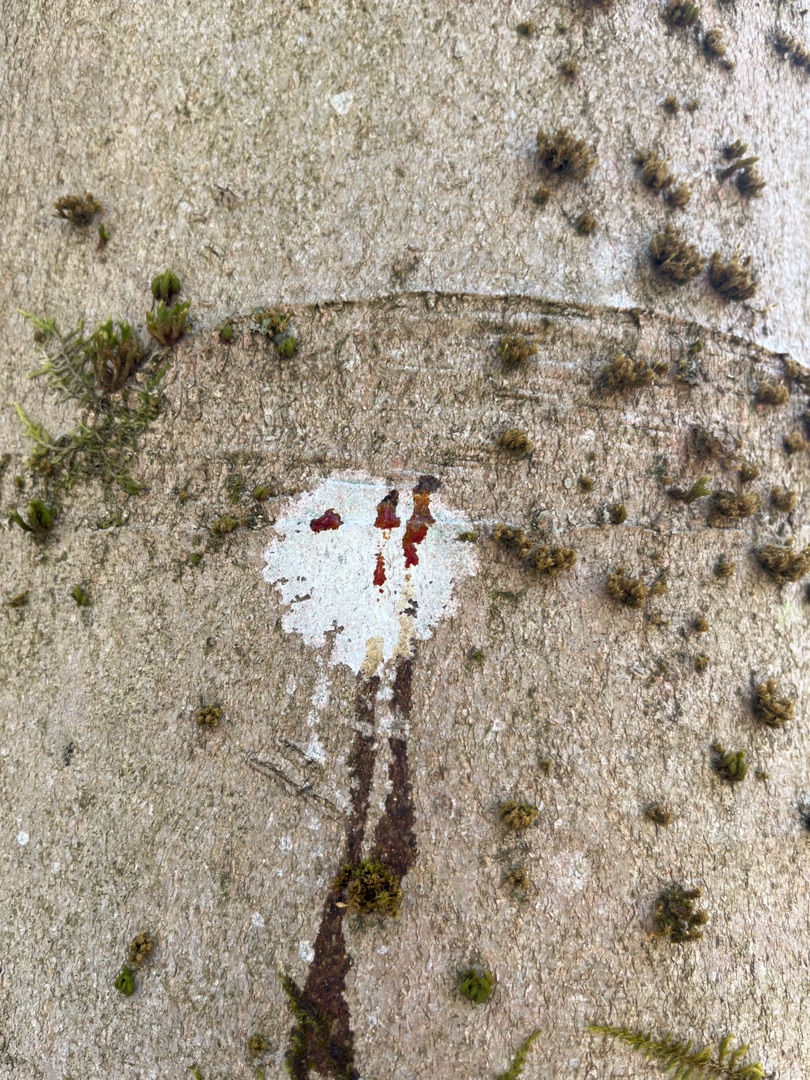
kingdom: Fungi
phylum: Ascomycota
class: Lecanoromycetes
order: Ostropales
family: Phlyctidaceae
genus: Phlyctis
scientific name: Phlyctis argena
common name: Almindelig sølvlav
